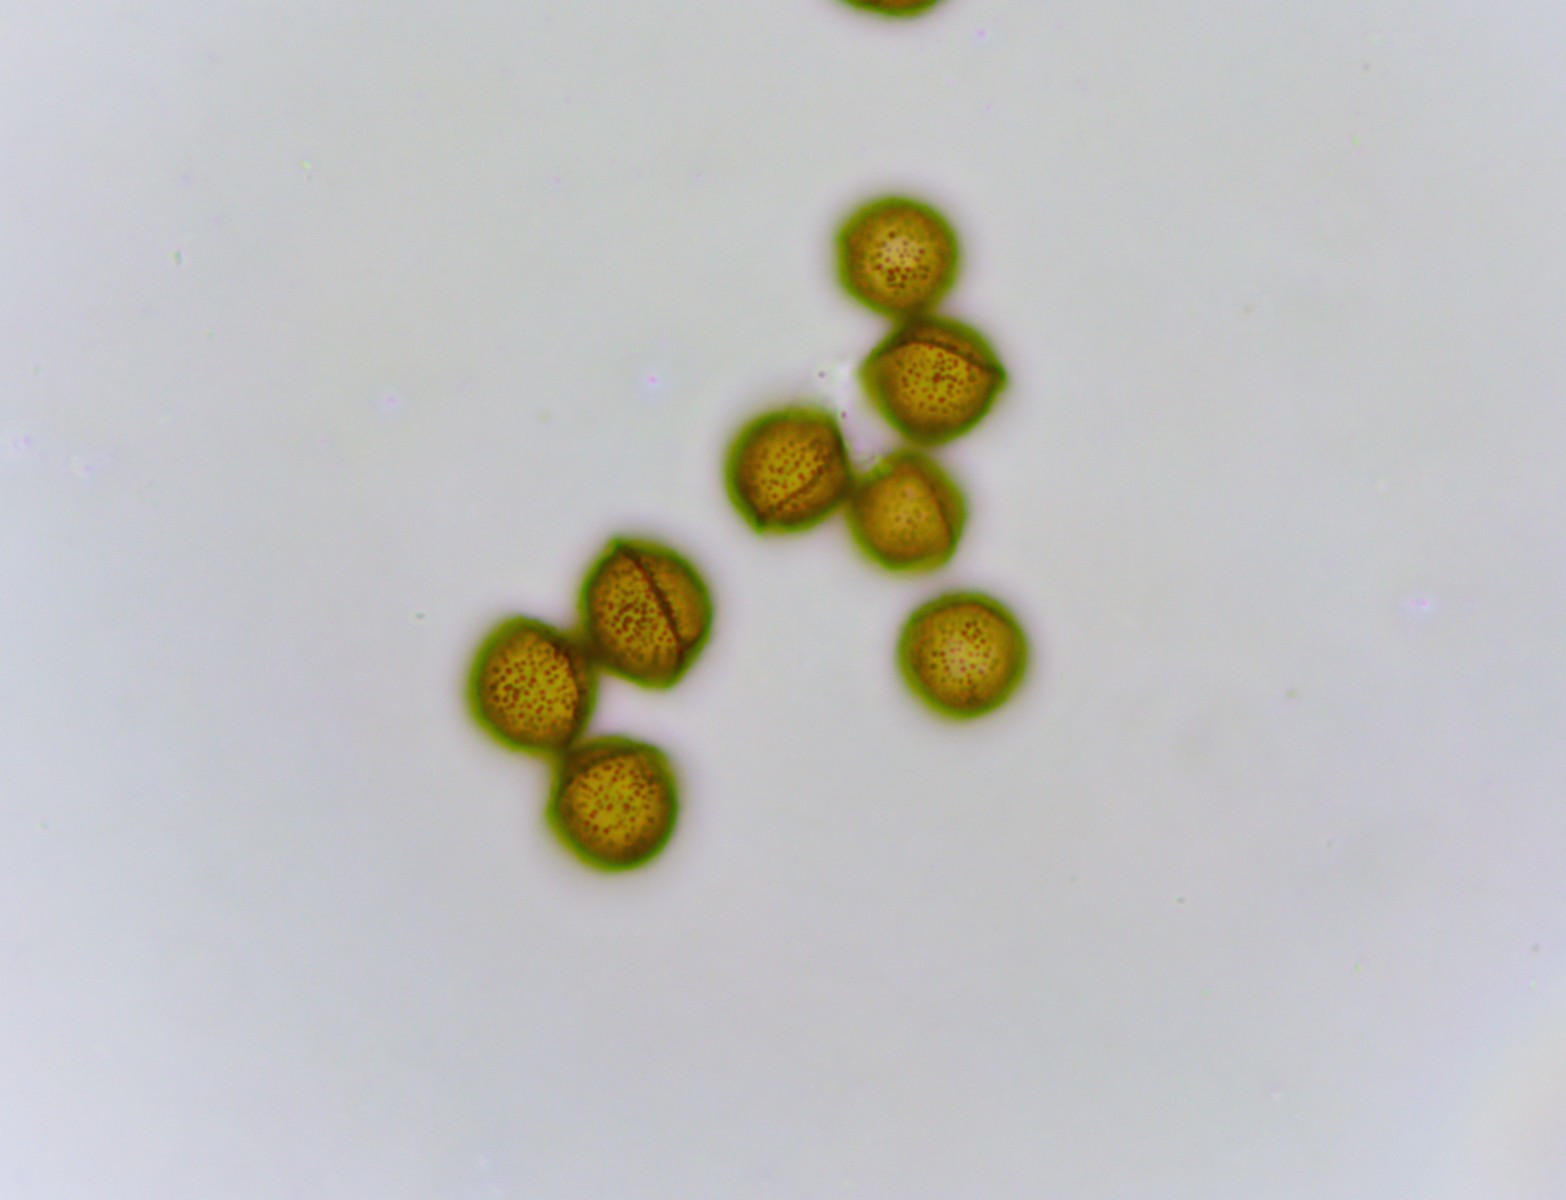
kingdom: Protozoa
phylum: Mycetozoa
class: Myxomycetes
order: Physarales
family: Didymiaceae
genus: Didymium
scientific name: Didymium squamulosum
